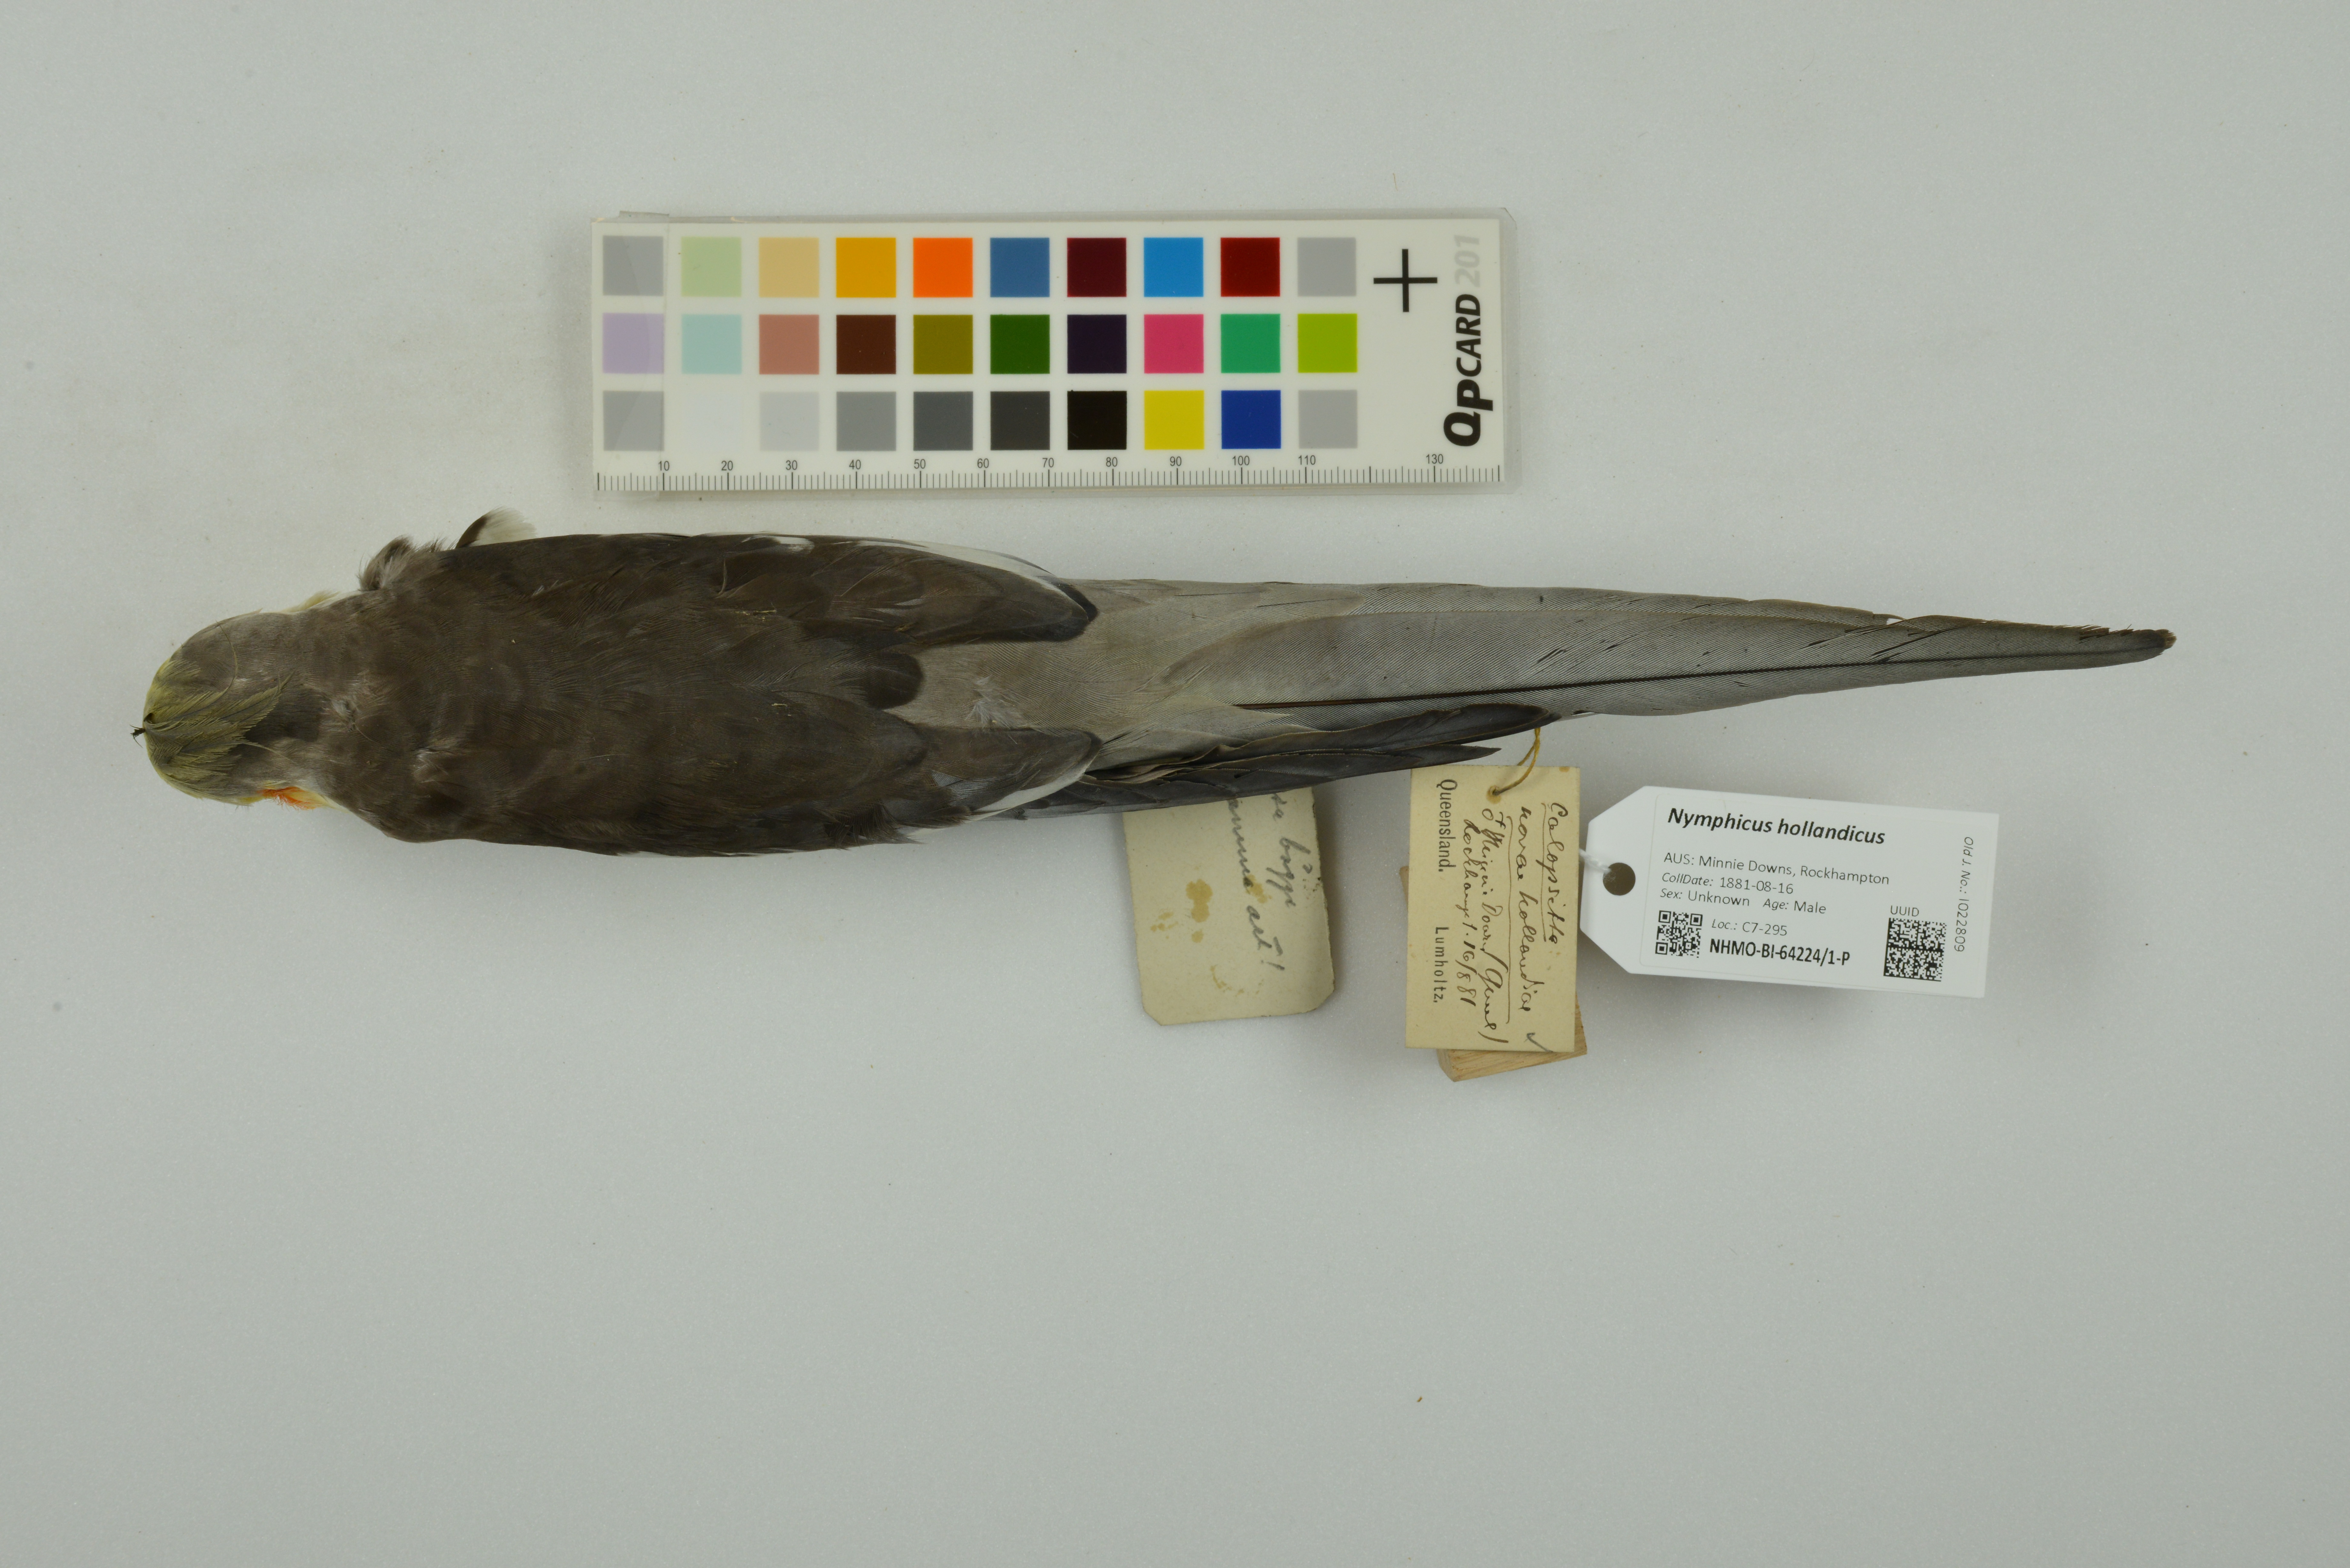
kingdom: Animalia
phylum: Chordata
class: Aves
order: Psittaciformes
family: Psittacidae
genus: Nymphicus
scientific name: Nymphicus hollandicus
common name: Cockatiel
